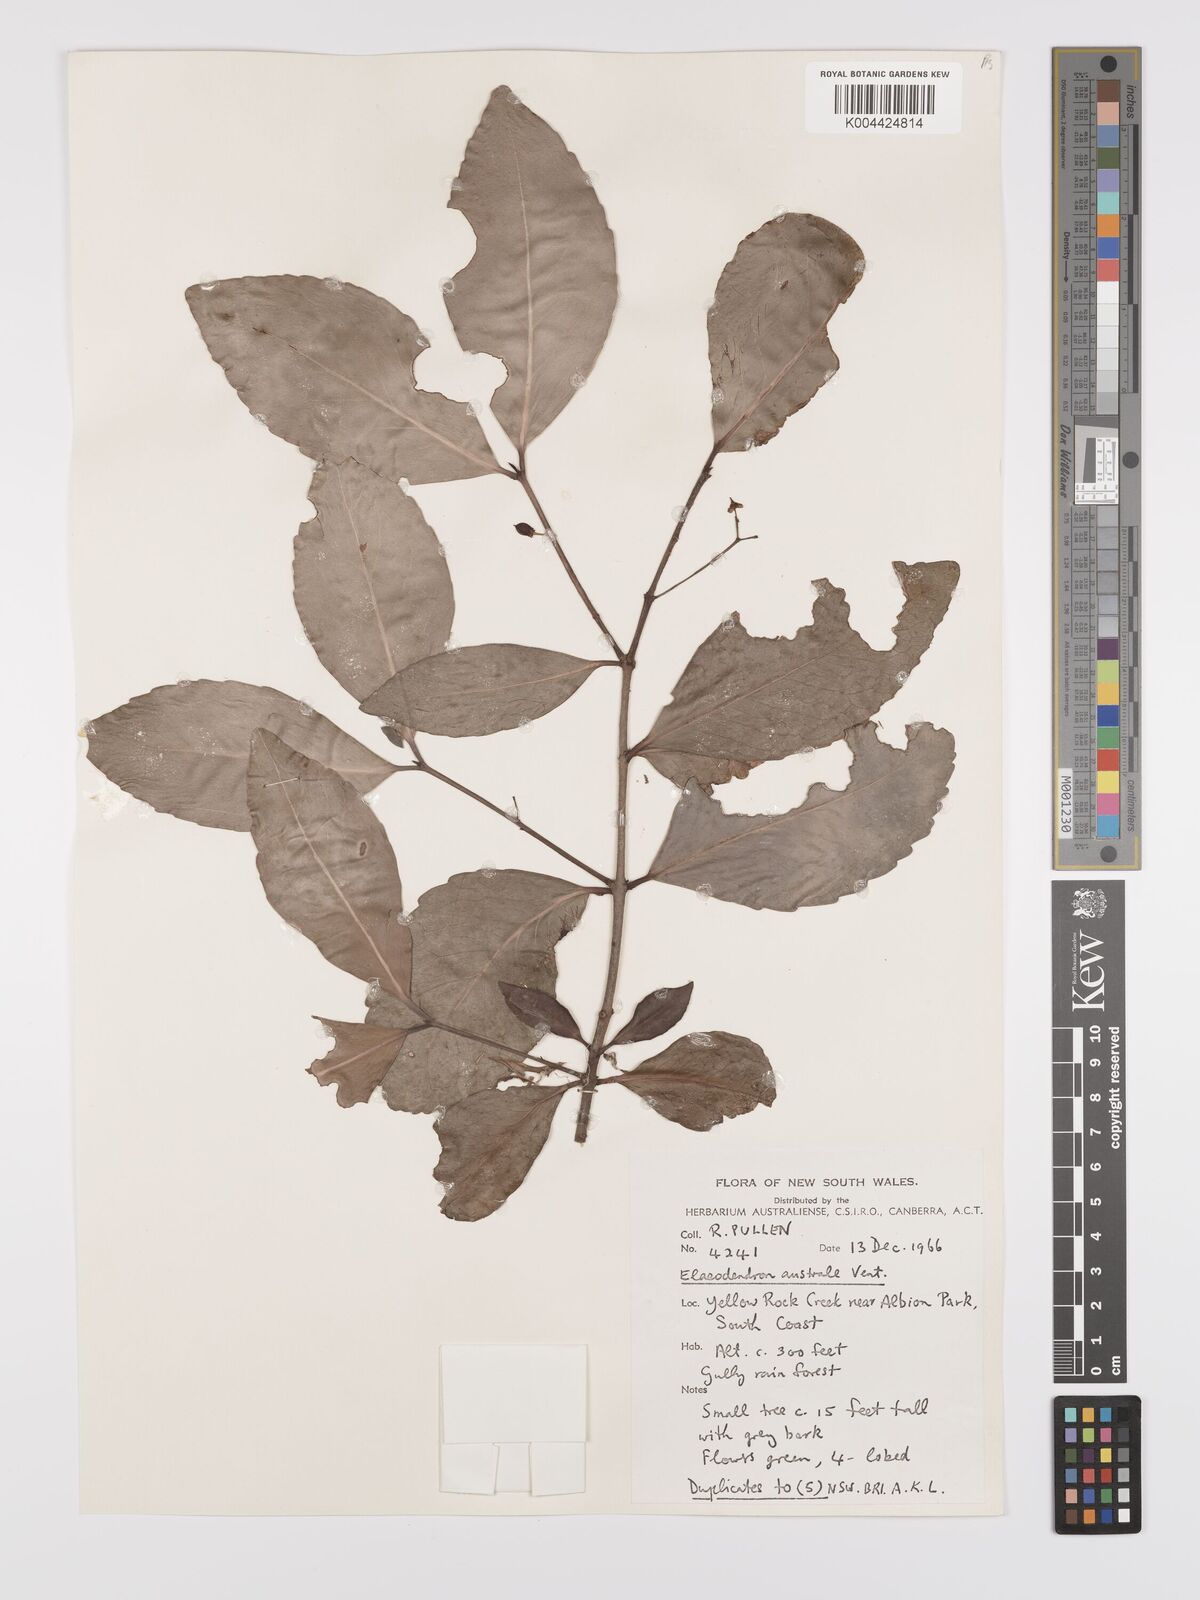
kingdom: Plantae
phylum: Tracheophyta
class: Magnoliopsida
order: Celastrales
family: Celastraceae
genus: Elaeodendron
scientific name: Elaeodendron australe
